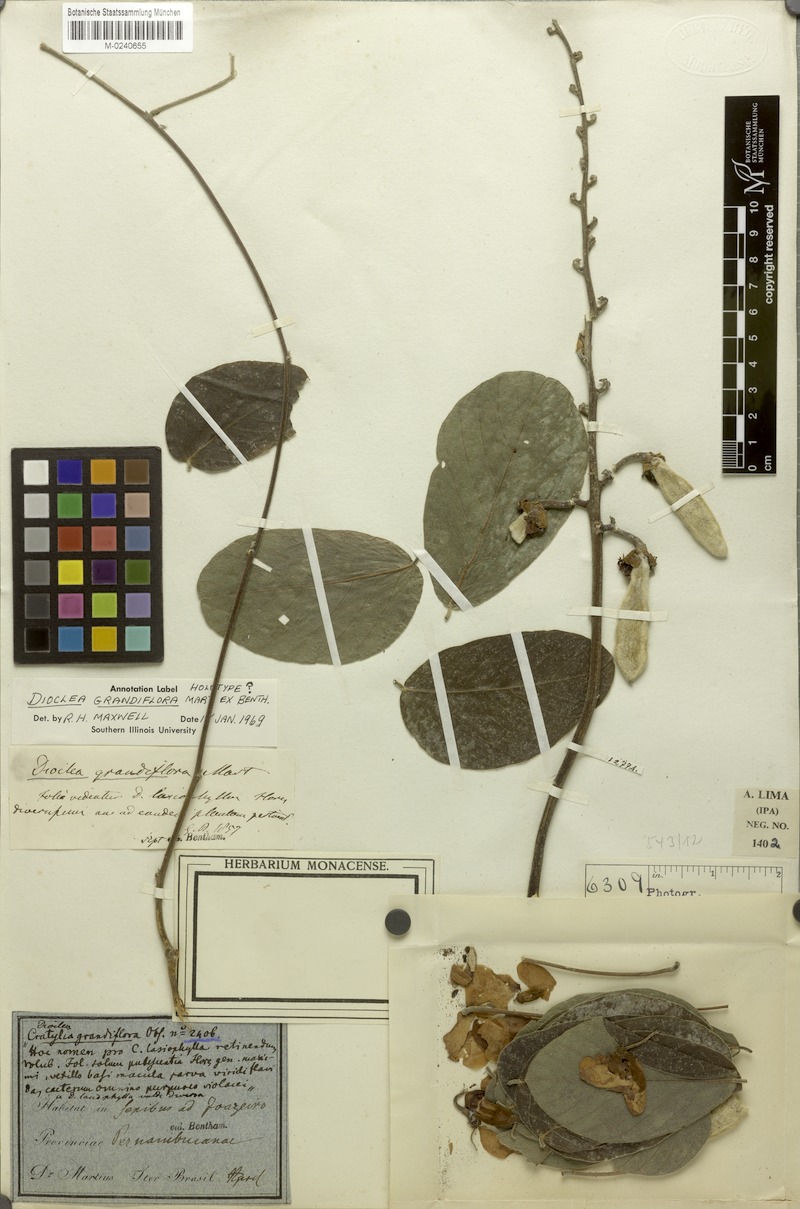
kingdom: Plantae
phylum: Tracheophyta
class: Magnoliopsida
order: Fabales
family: Fabaceae
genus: Macropsychanthus
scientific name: Macropsychanthus grandiflorus
